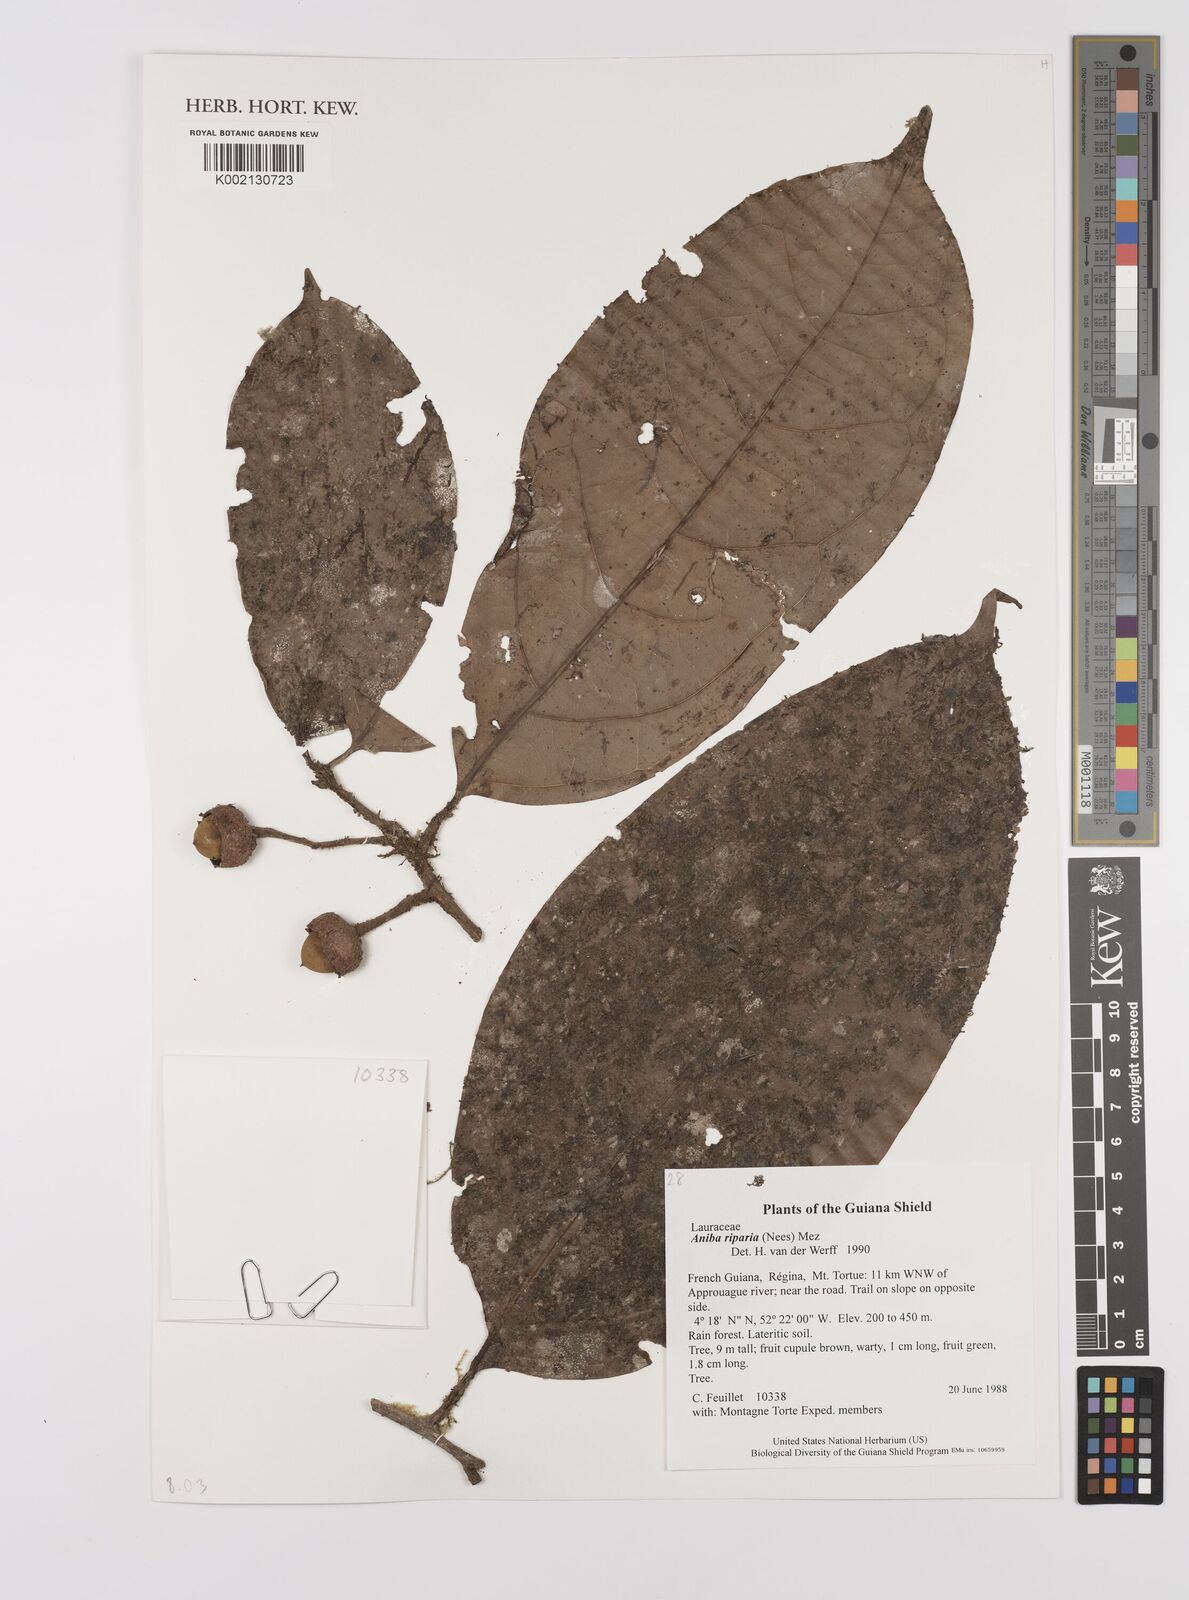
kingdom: Plantae
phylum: Tracheophyta
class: Magnoliopsida
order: Laurales
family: Lauraceae
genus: Aniba
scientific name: Aniba riparia
